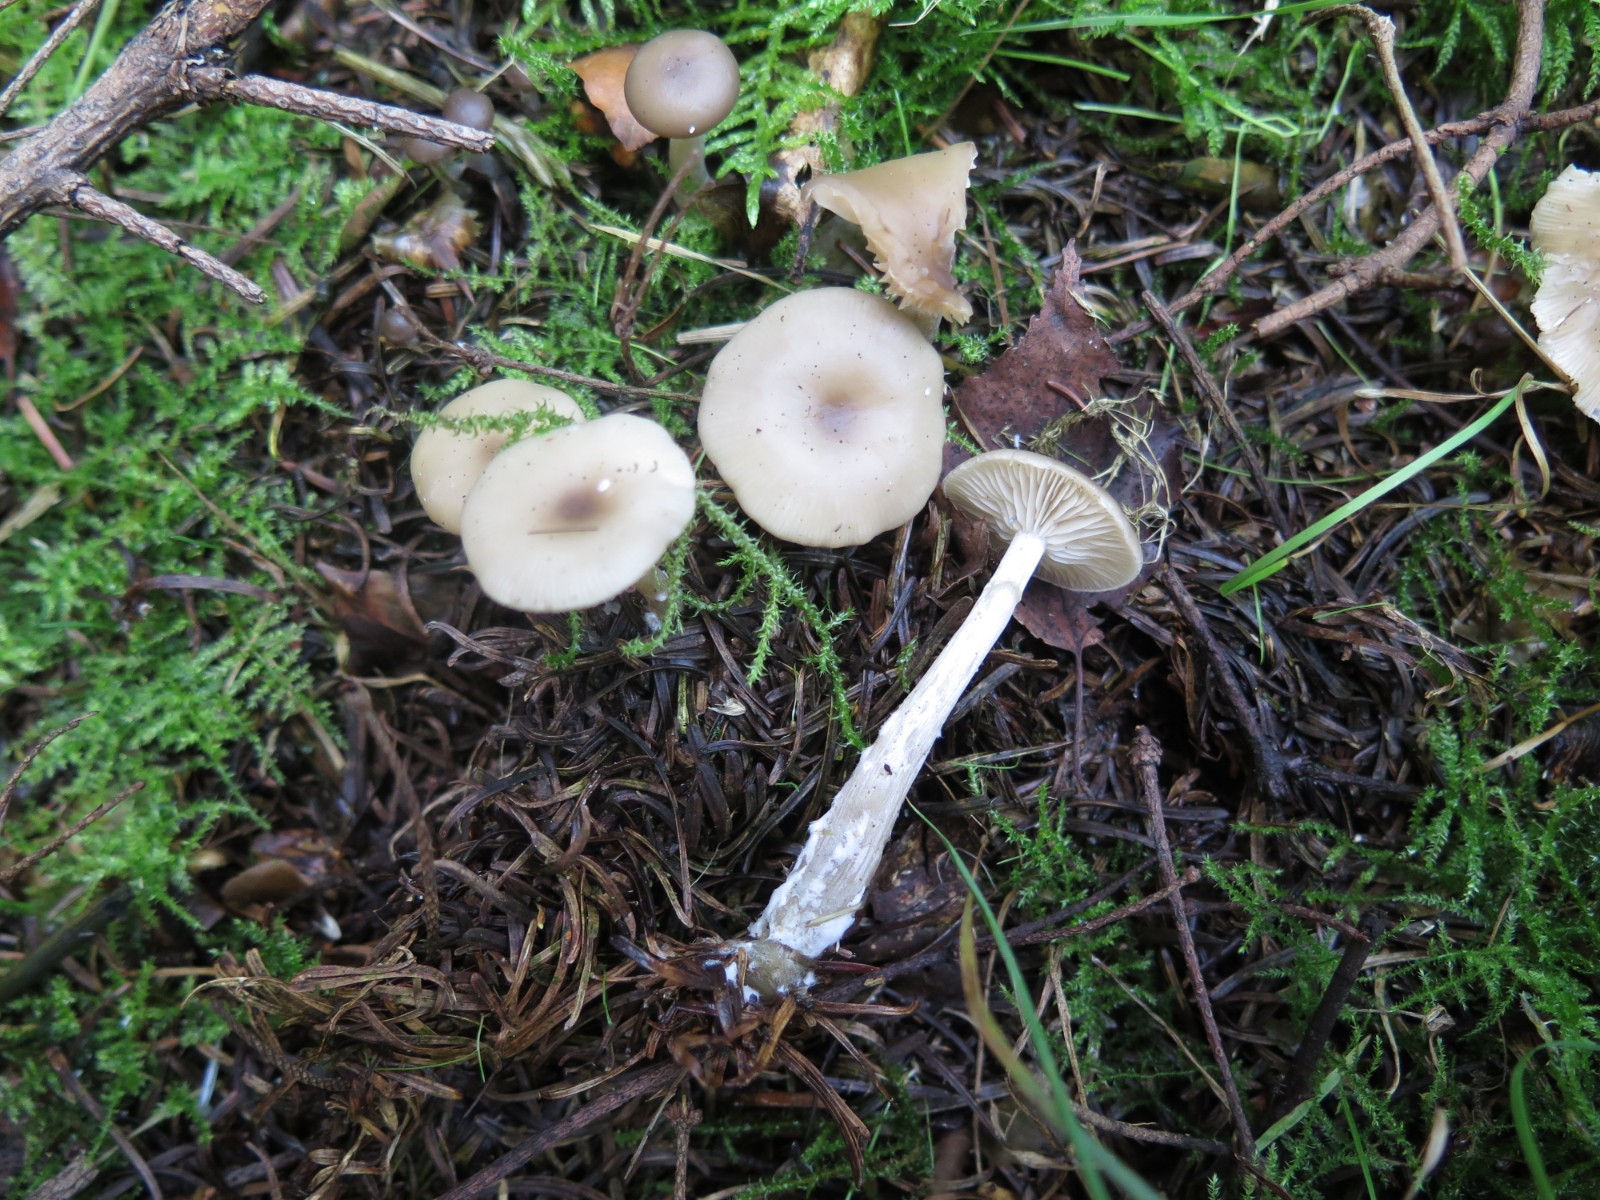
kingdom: Fungi
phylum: Basidiomycota
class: Agaricomycetes
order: Agaricales
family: Tricholomataceae
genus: Clitocybe
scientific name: Clitocybe
